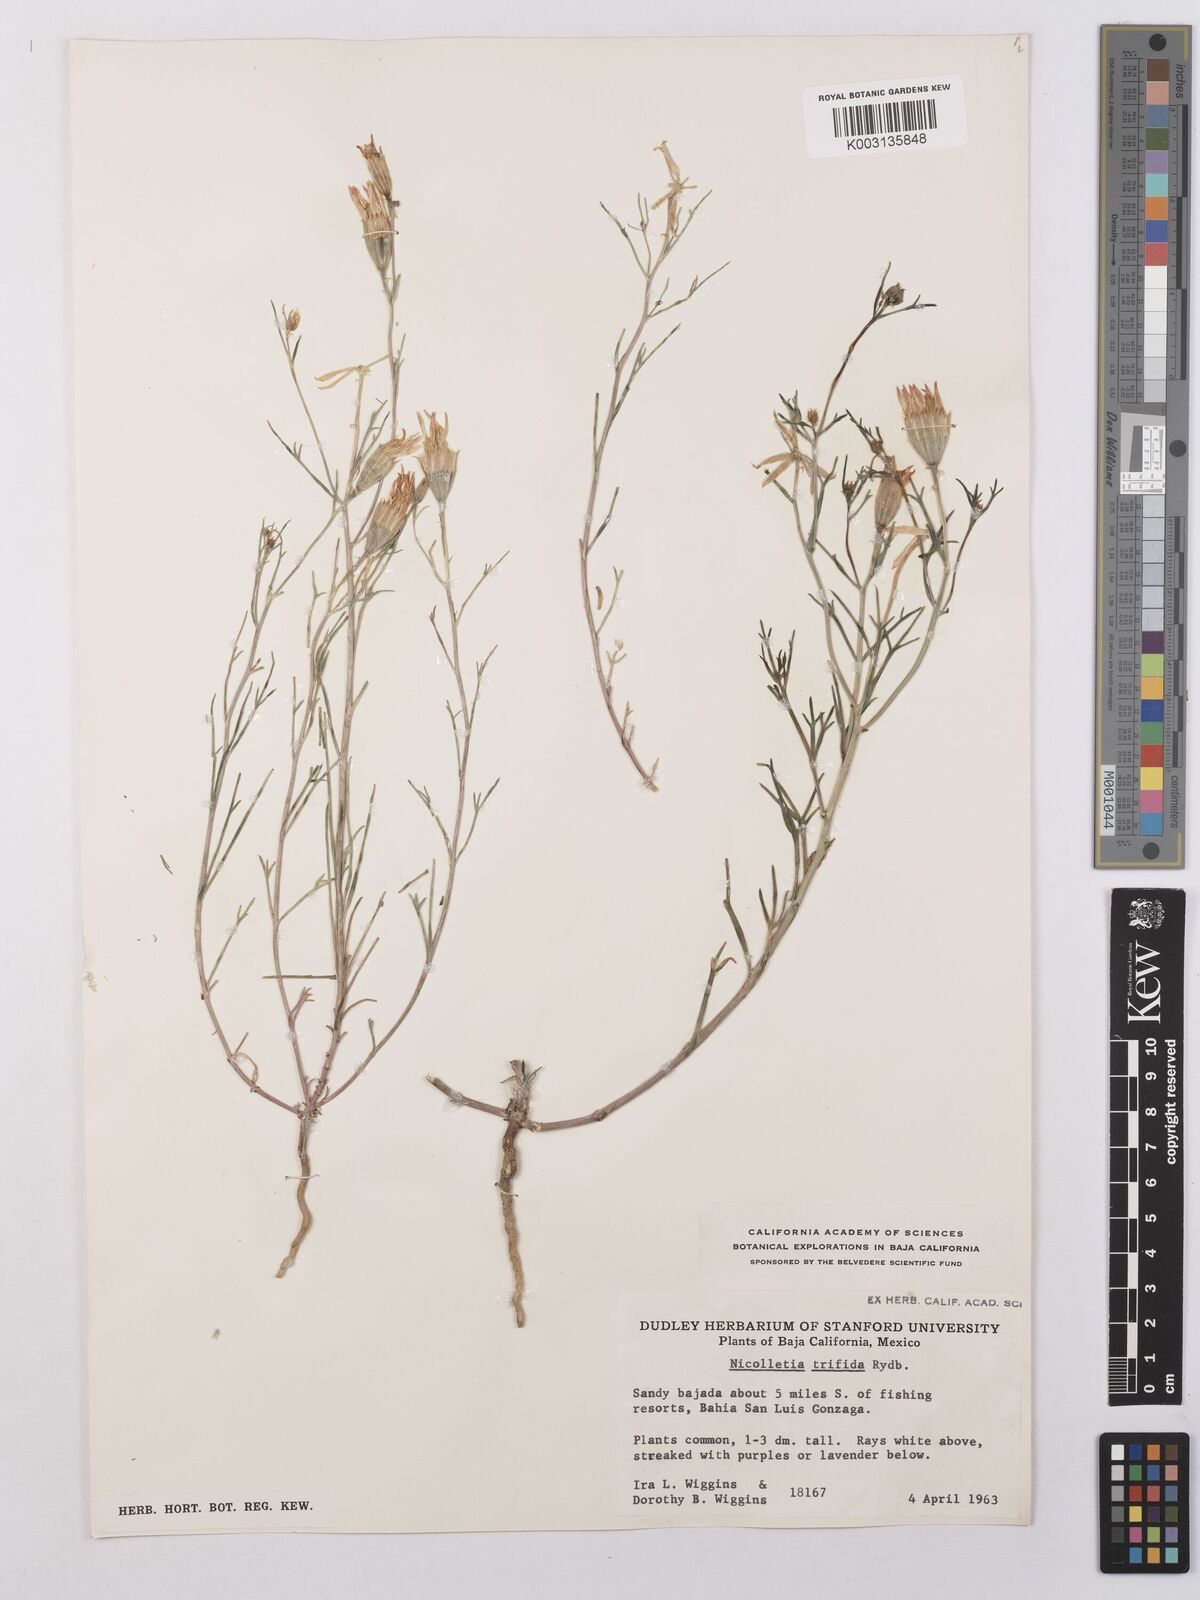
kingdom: Plantae
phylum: Tracheophyta
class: Magnoliopsida
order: Asterales
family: Asteraceae
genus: Nicolletia
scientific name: Nicolletia trifida
